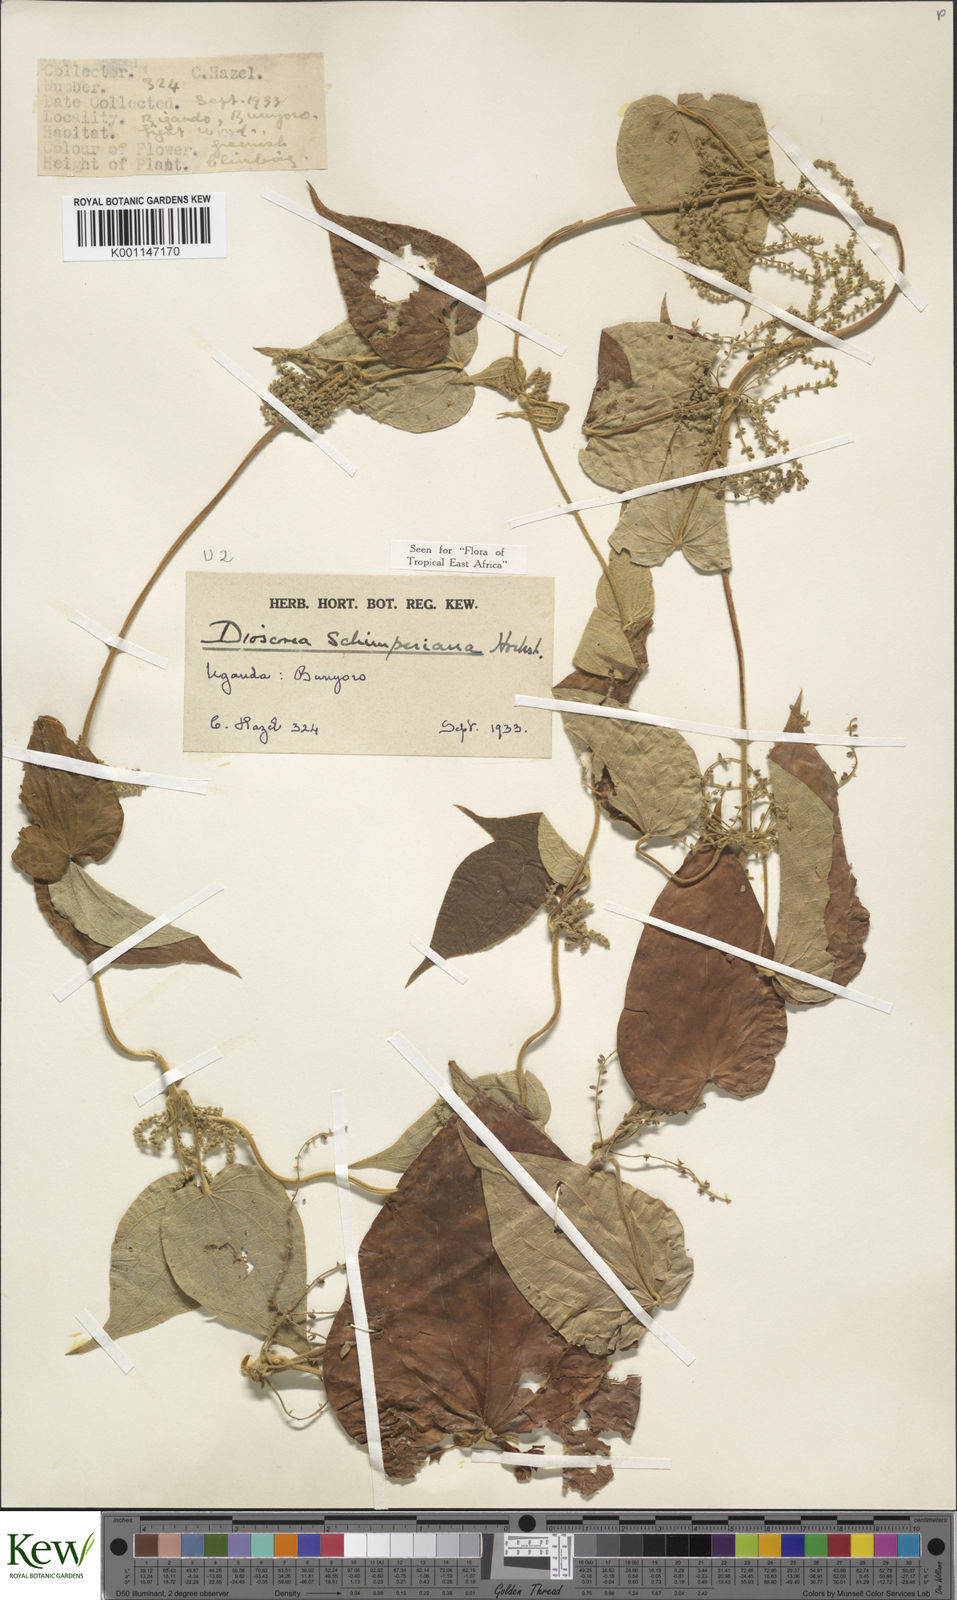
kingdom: Plantae
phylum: Tracheophyta
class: Liliopsida
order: Dioscoreales
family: Dioscoreaceae
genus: Dioscorea
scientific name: Dioscorea schimperiana
